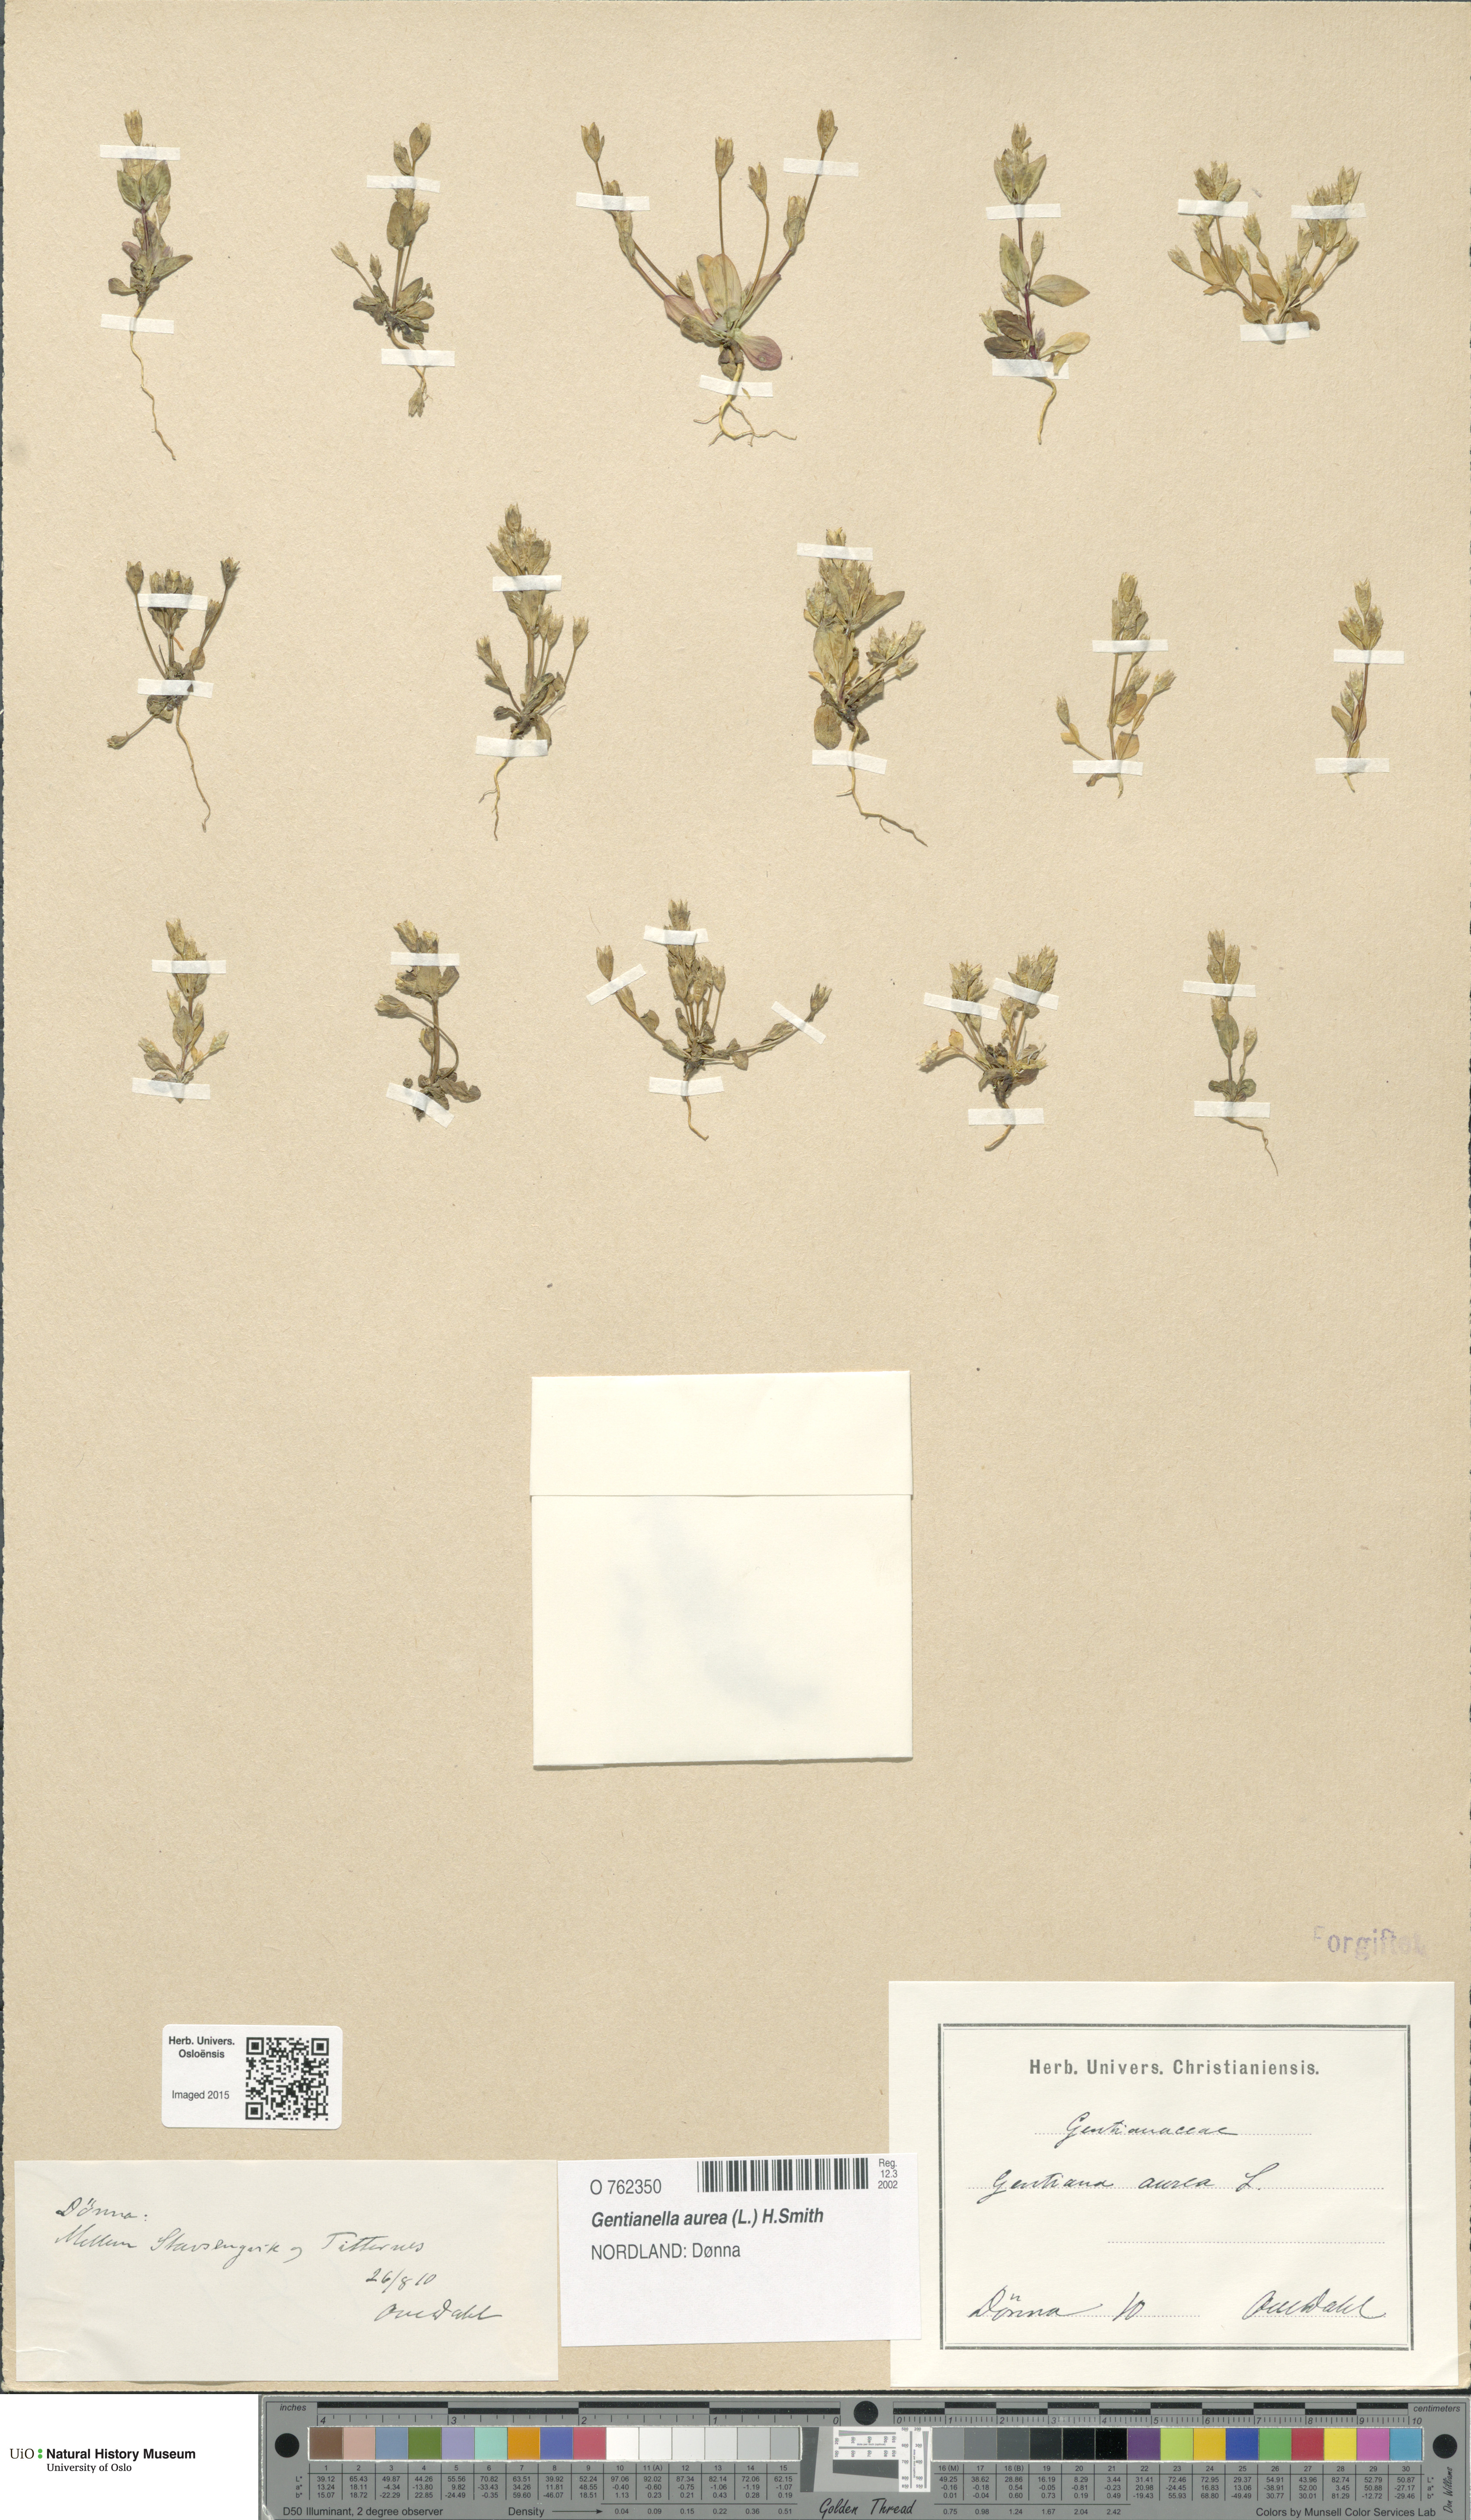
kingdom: Plantae
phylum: Tracheophyta
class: Magnoliopsida
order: Gentianales
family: Gentianaceae
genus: Gentianella
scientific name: Gentianella aurea
